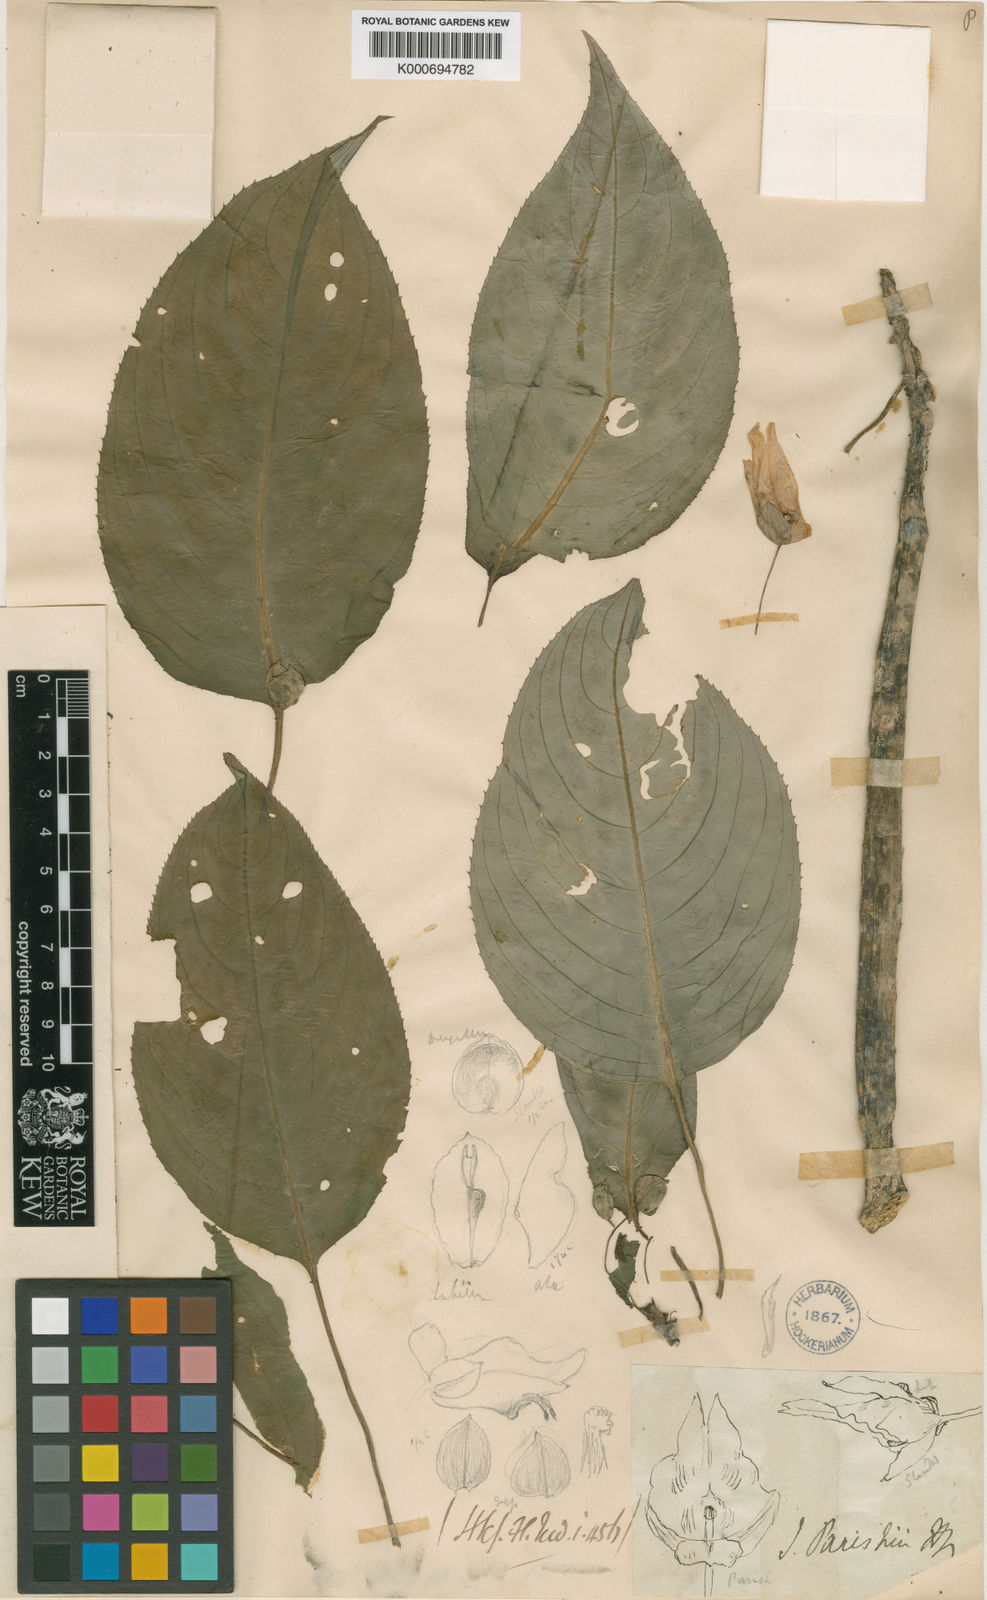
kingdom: Plantae
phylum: Tracheophyta
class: Magnoliopsida
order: Ericales
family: Balsaminaceae
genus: Impatiens
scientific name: Impatiens parishii
